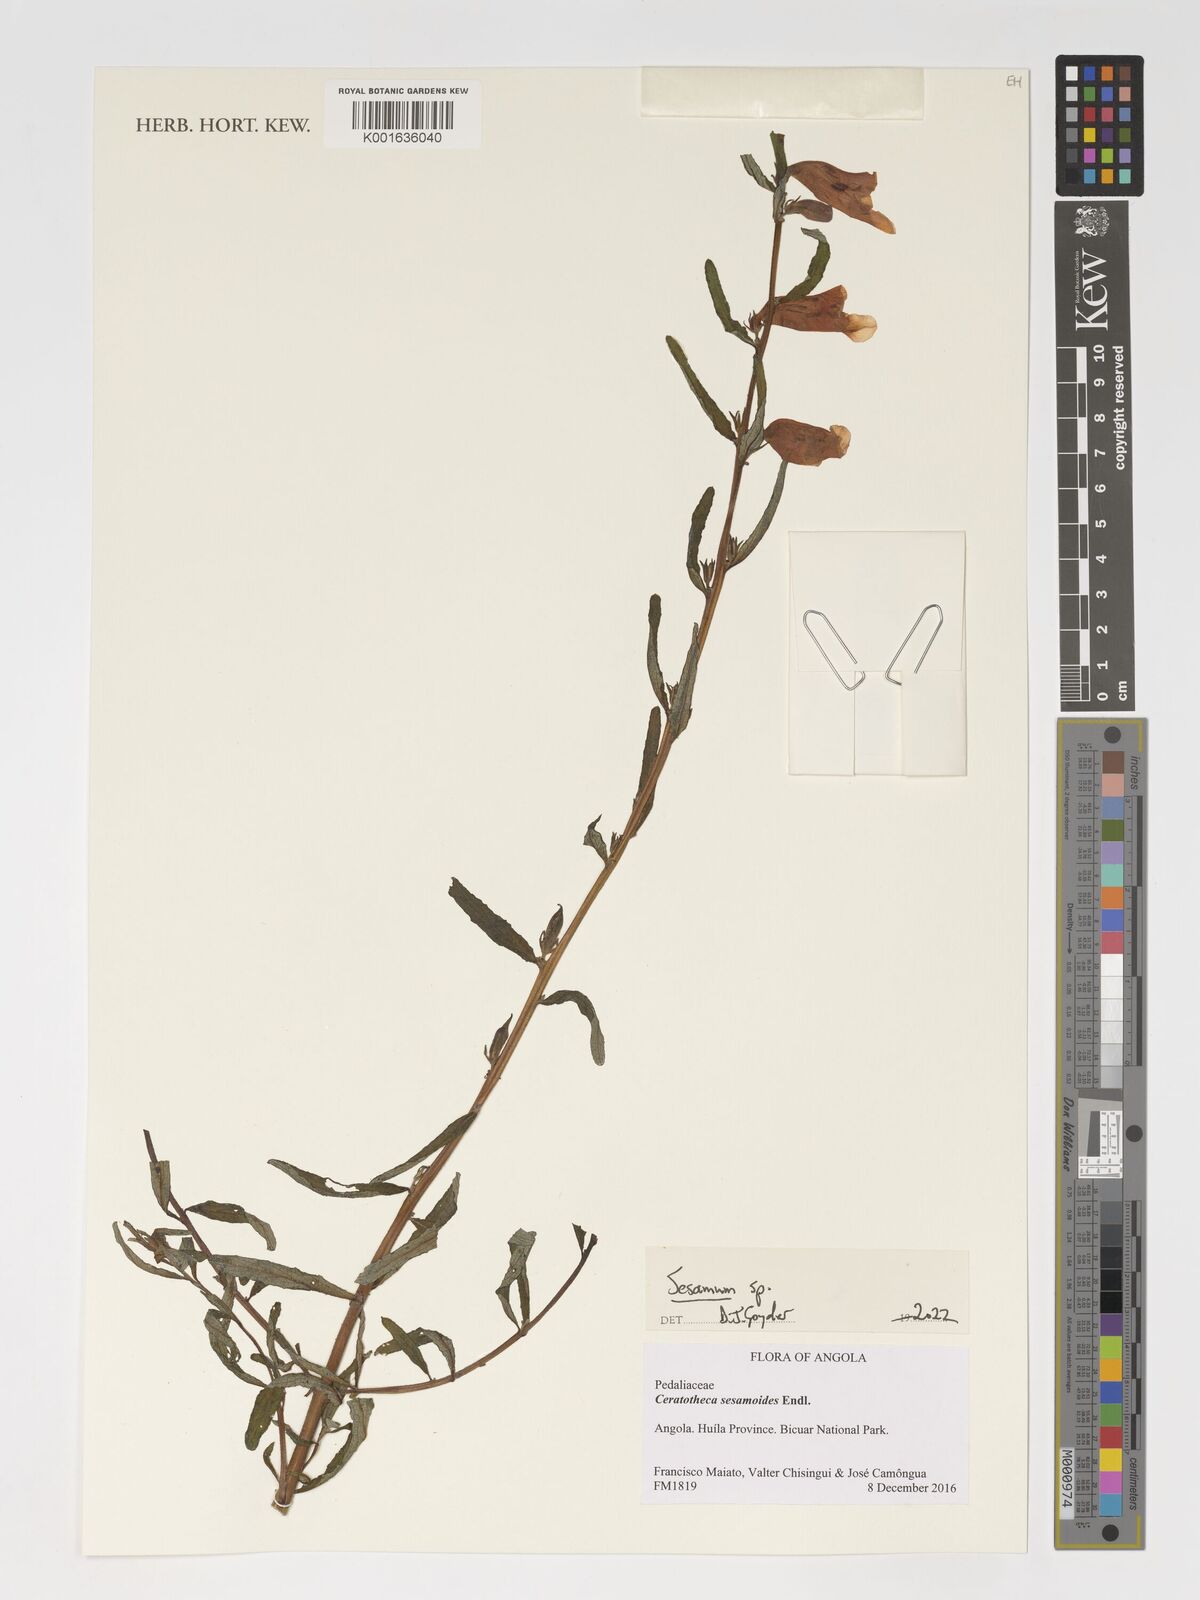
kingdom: Plantae
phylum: Tracheophyta
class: Magnoliopsida
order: Lamiales
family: Pedaliaceae
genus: Sesamum
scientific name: Sesamum
